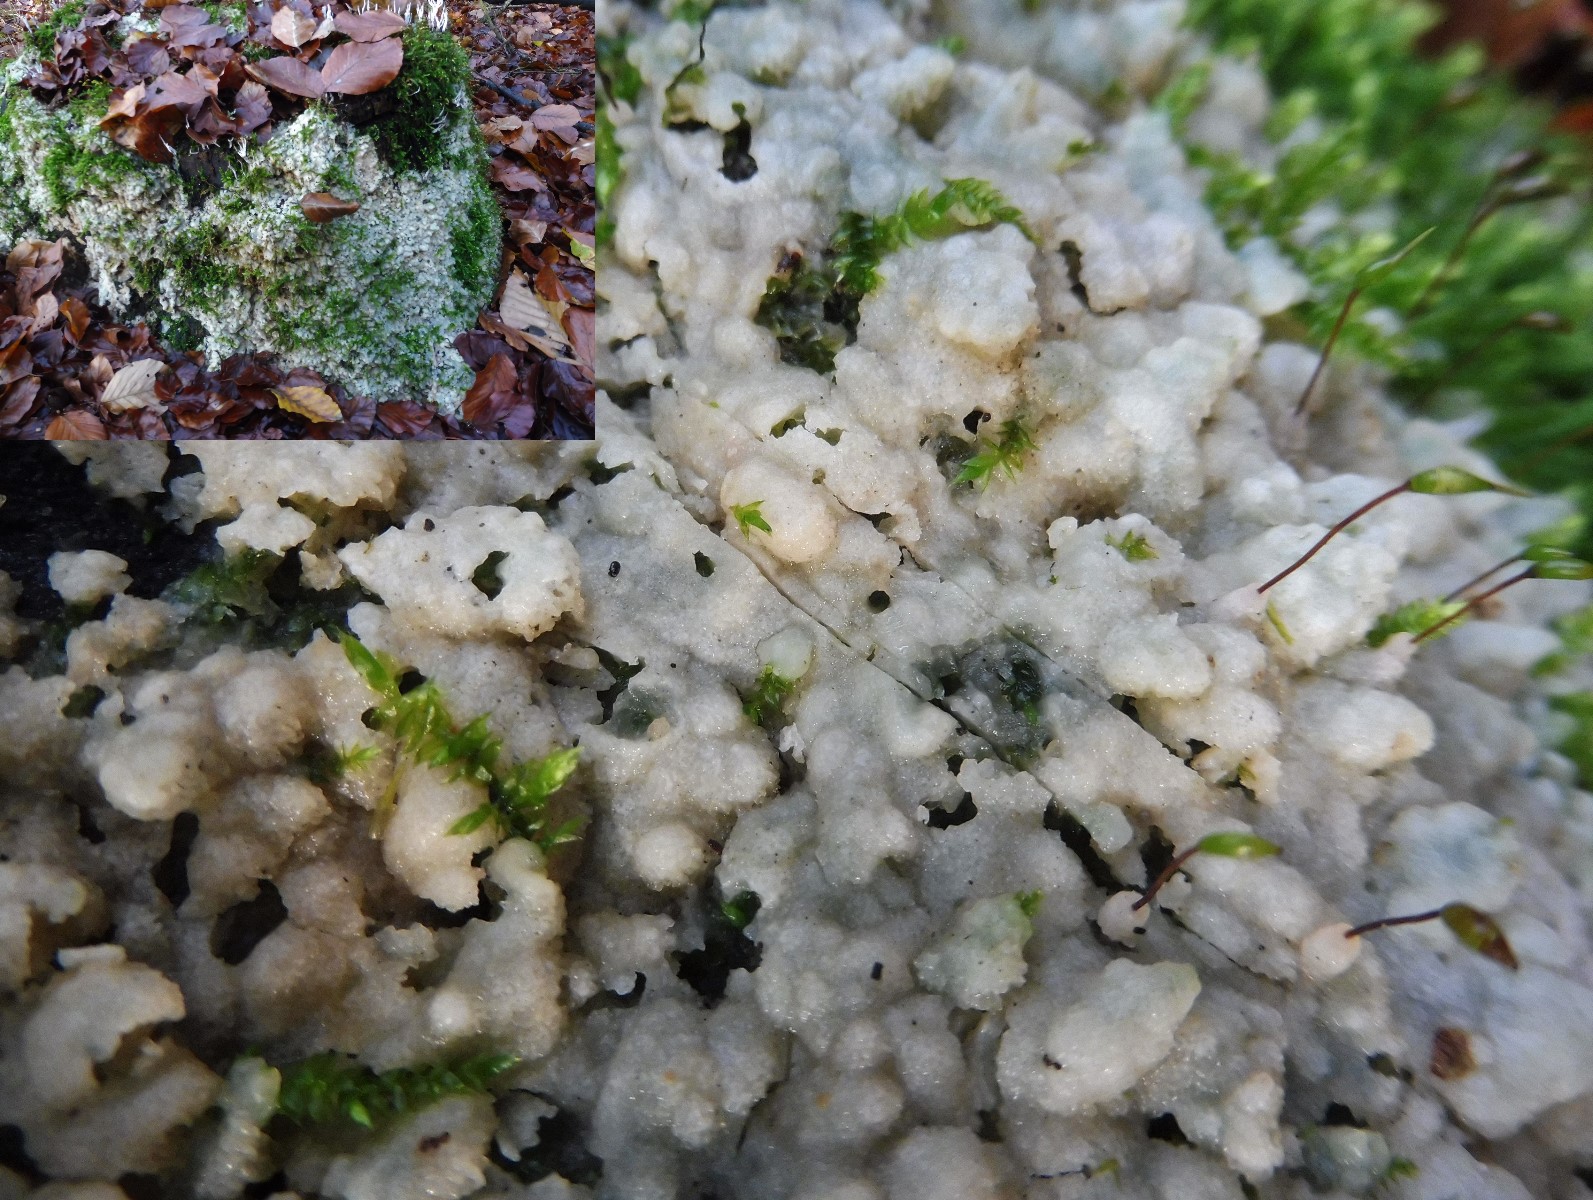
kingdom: Fungi
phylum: Basidiomycota
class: Agaricomycetes
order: Polyporales
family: Meruliaceae
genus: Physisporinus
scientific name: Physisporinus vitreus
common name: mastesvamp
